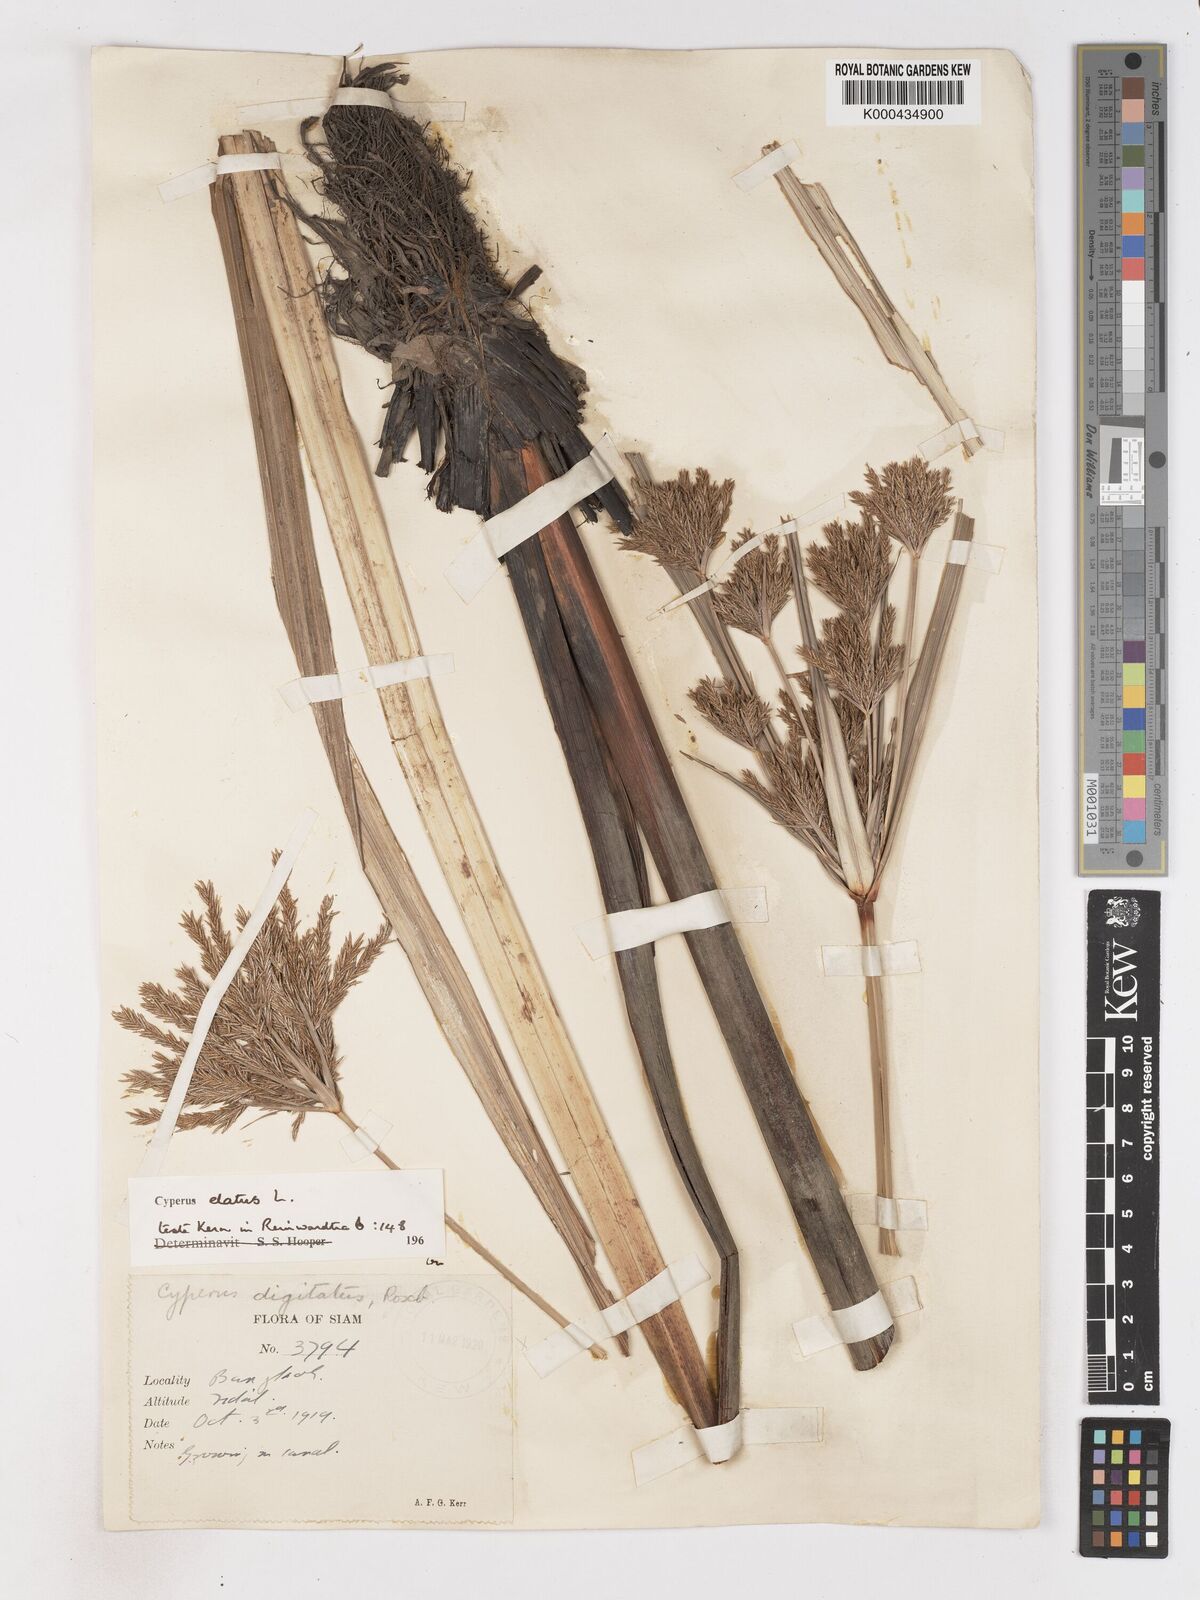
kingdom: Plantae
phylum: Tracheophyta
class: Liliopsida
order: Poales
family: Cyperaceae
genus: Cyperus
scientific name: Cyperus elatus
